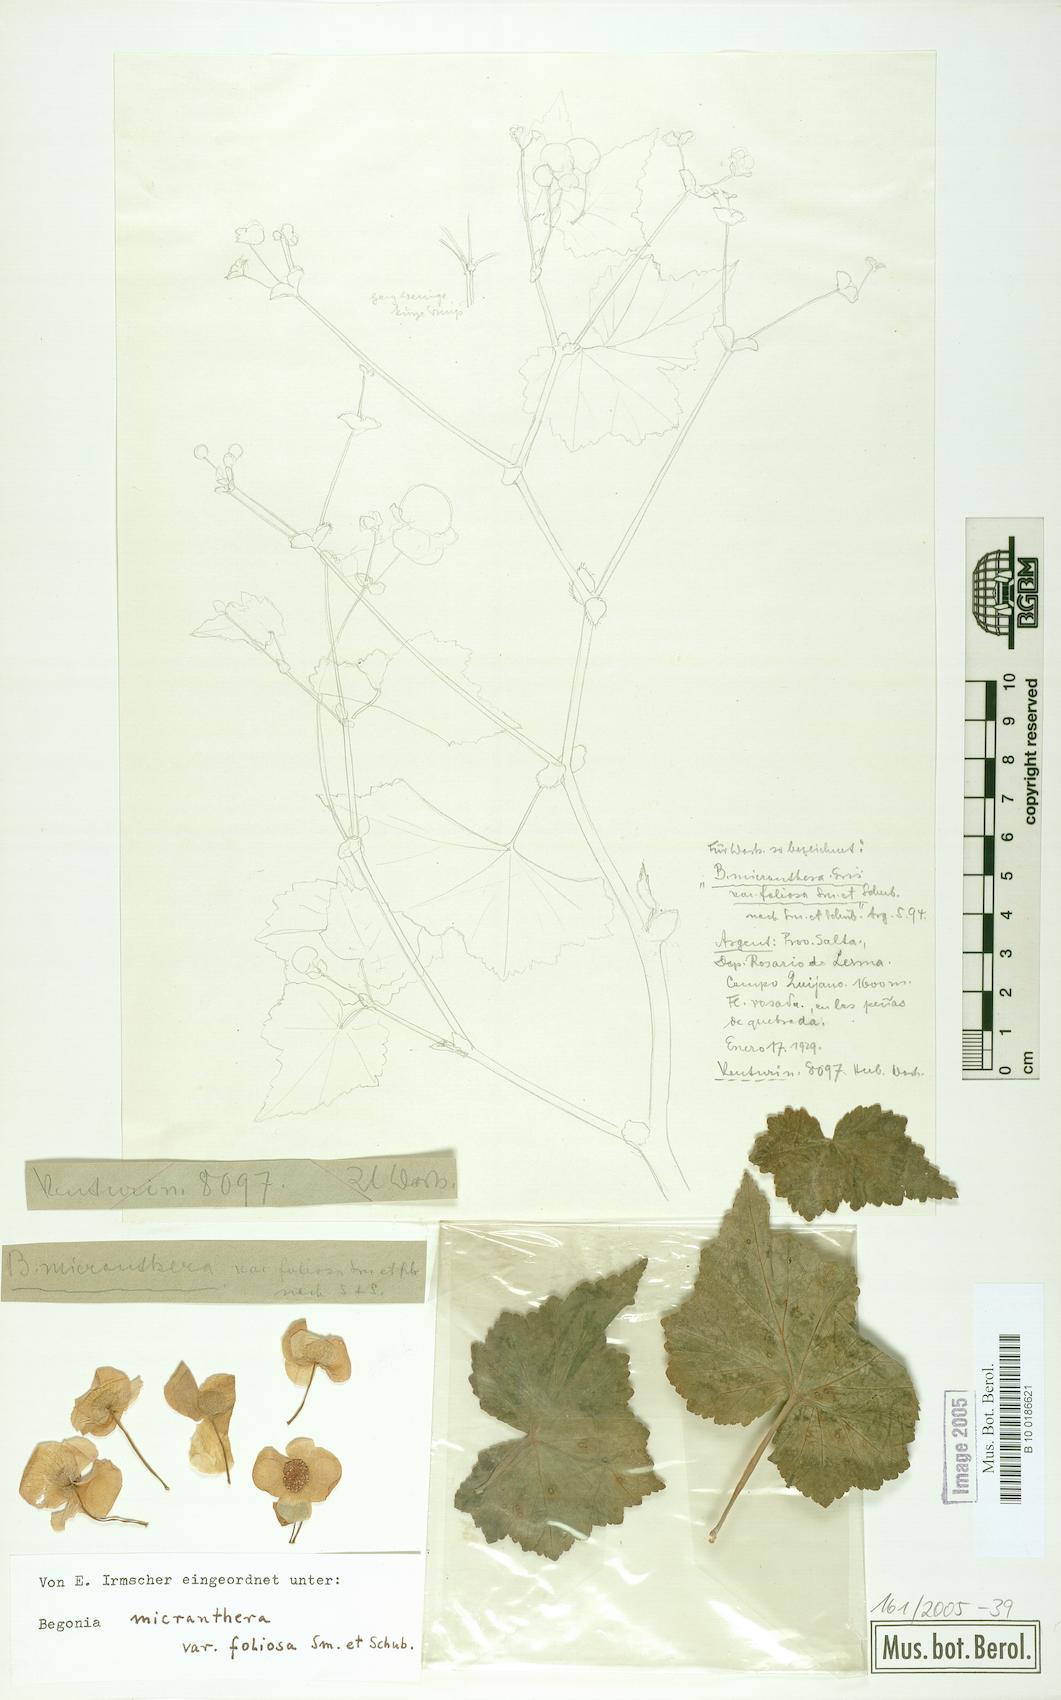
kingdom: Plantae
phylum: Tracheophyta
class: Magnoliopsida
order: Cucurbitales
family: Begoniaceae
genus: Begonia
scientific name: Begonia micranthera
